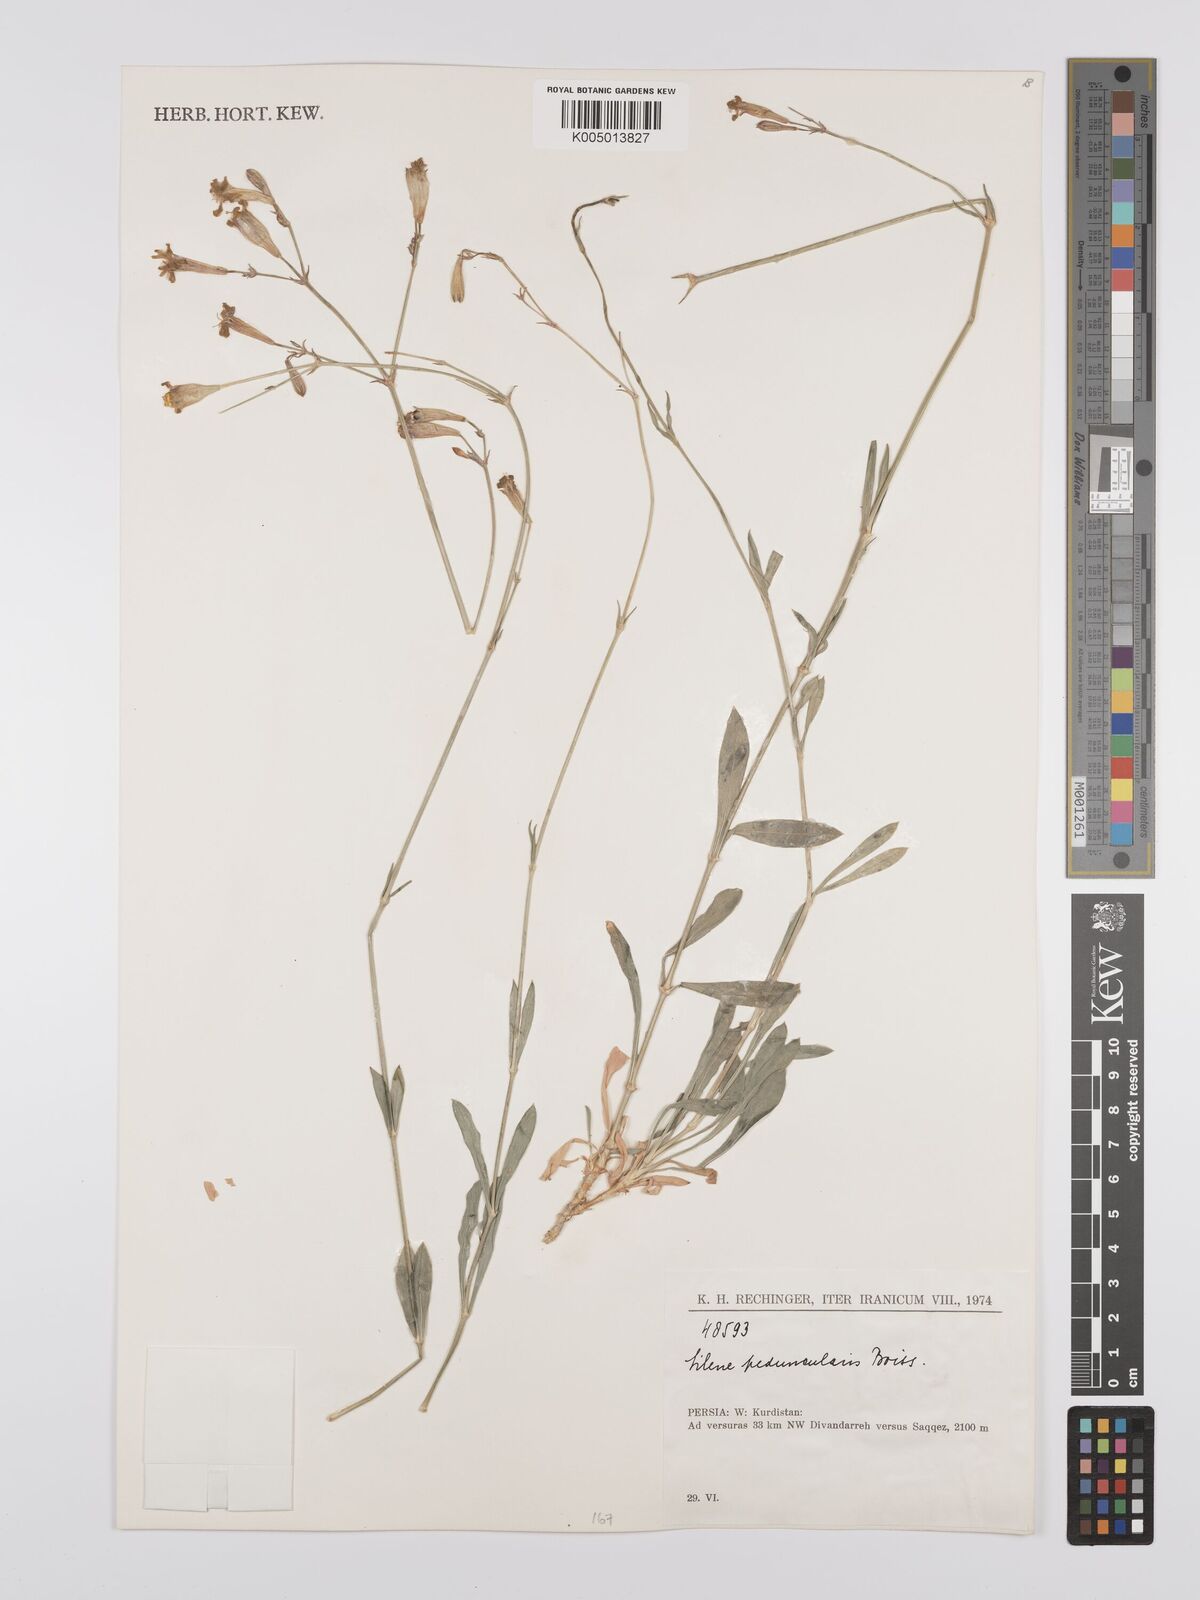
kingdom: Plantae
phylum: Tracheophyta
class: Magnoliopsida
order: Caryophyllales
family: Caryophyllaceae
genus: Silene
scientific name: Silene peduncularis
